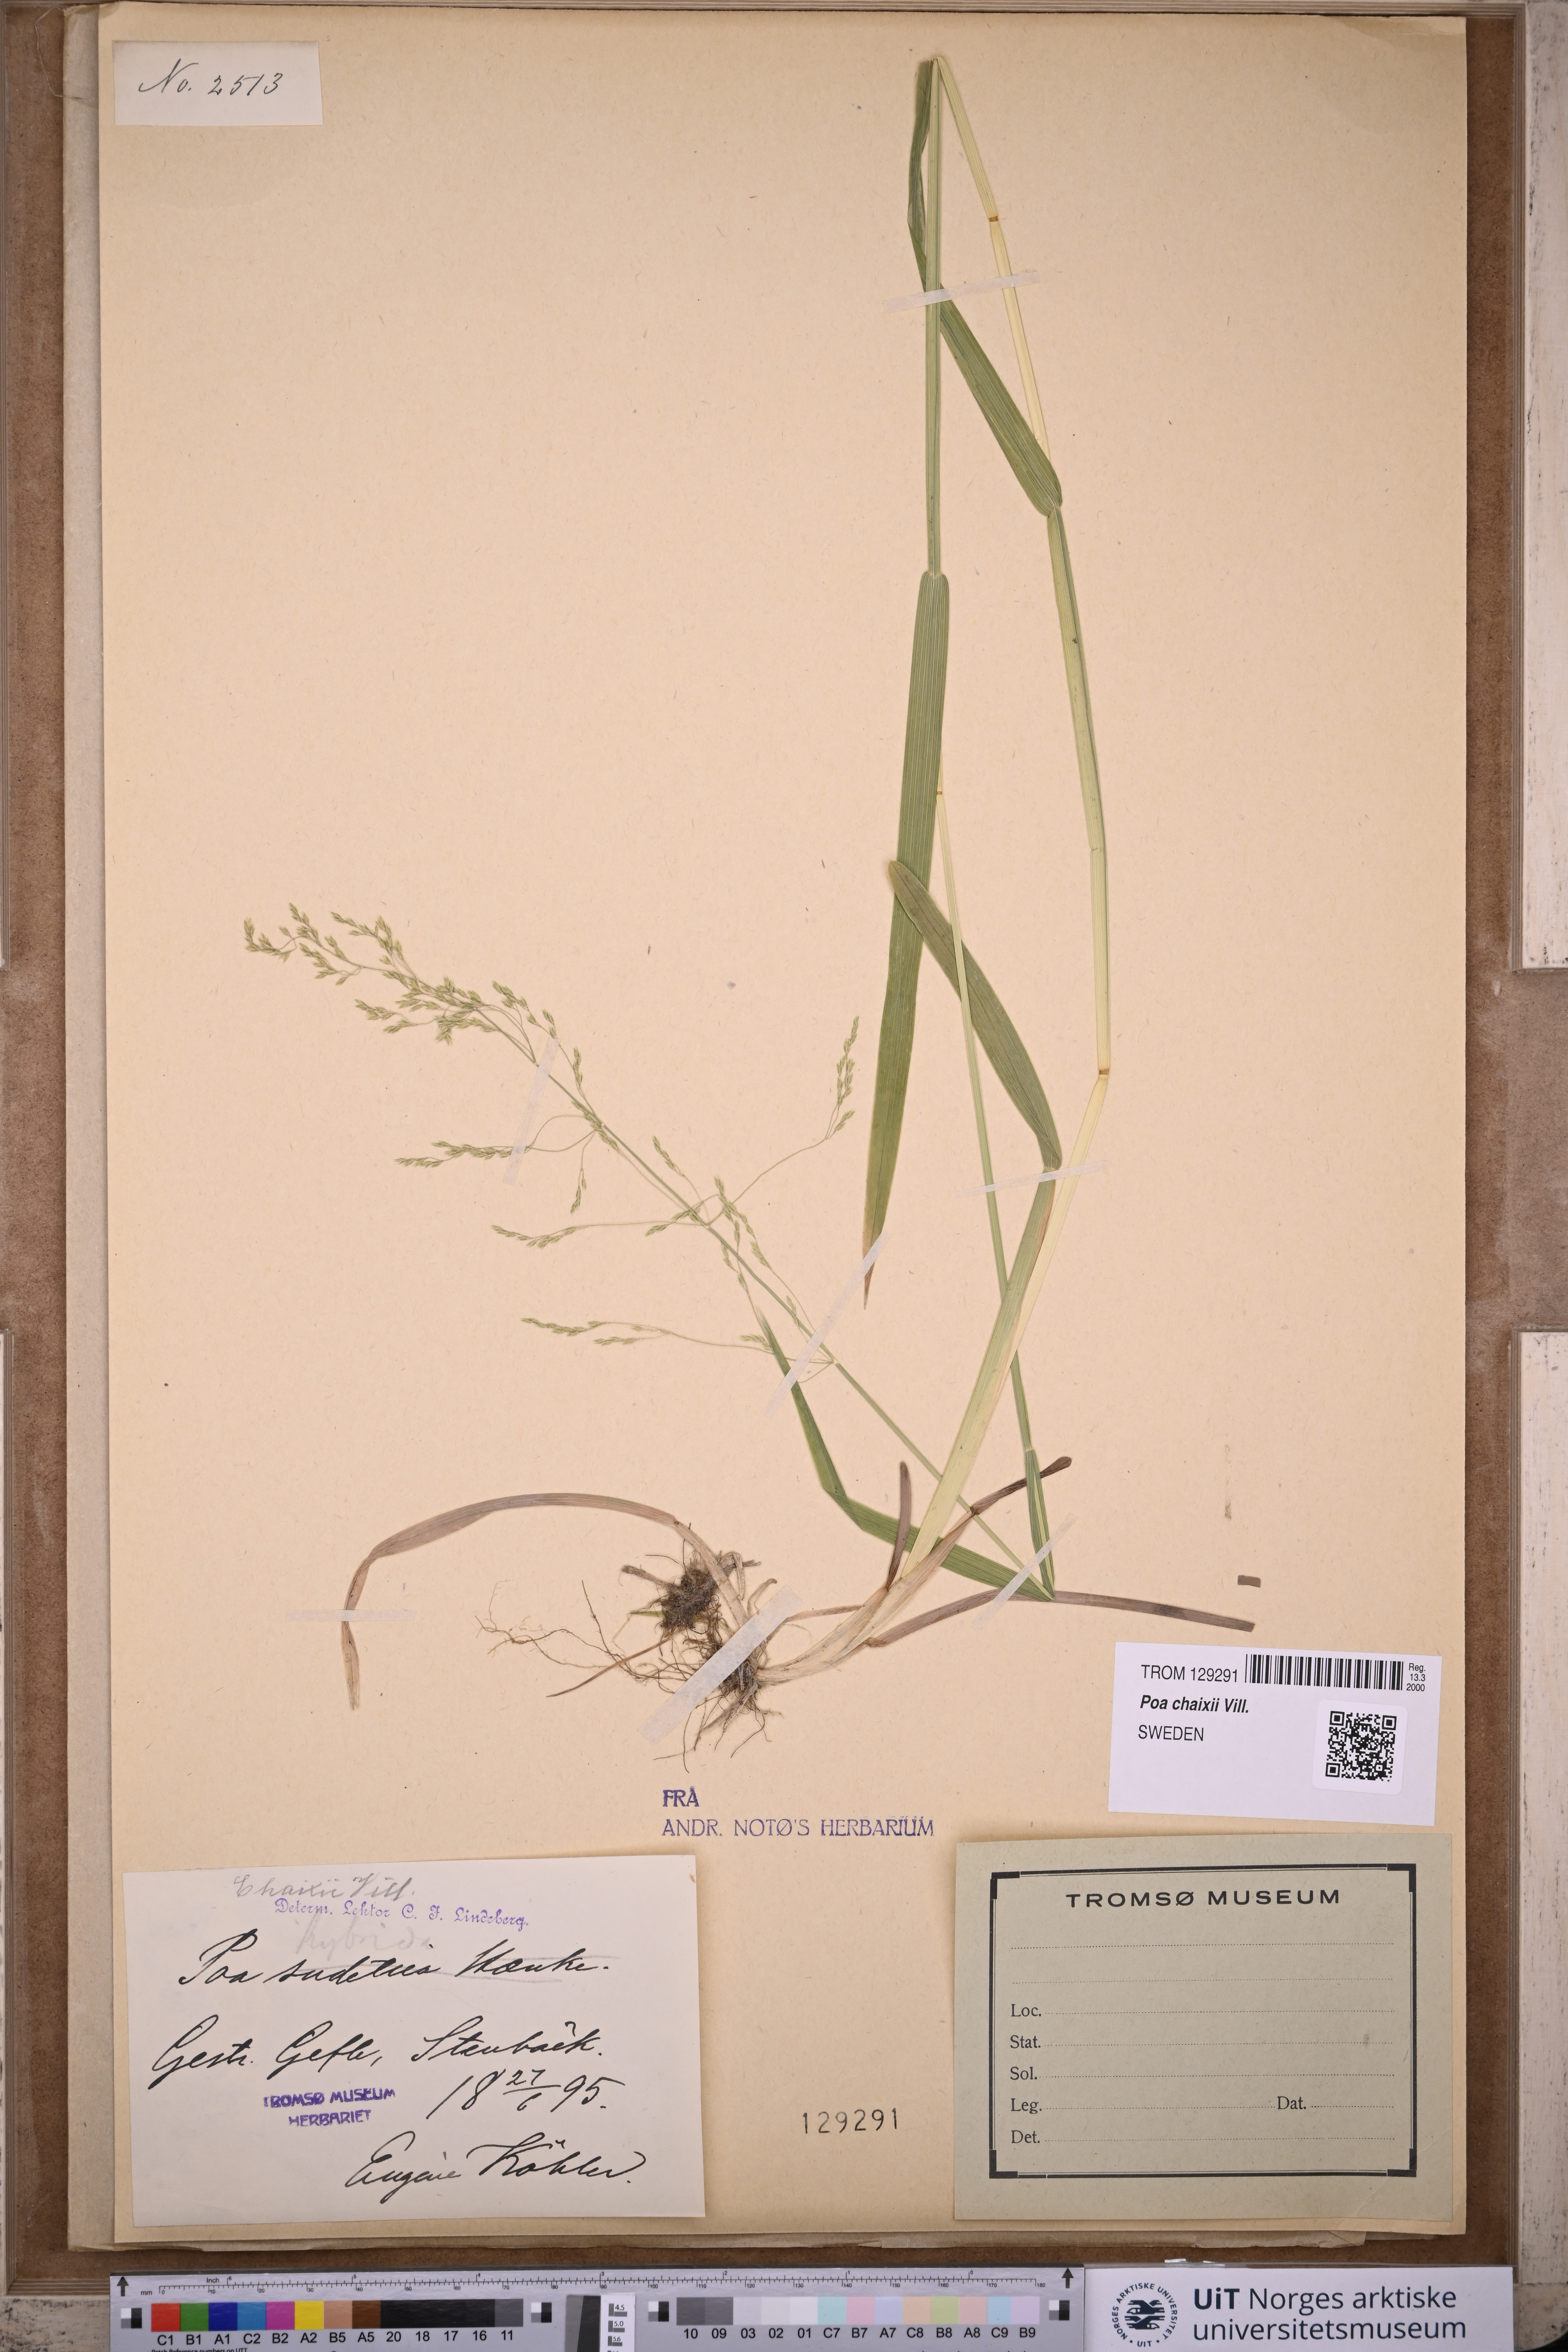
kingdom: Plantae
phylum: Tracheophyta
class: Liliopsida
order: Poales
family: Poaceae
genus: Poa
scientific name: Poa chaixii
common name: Broad-leaved meadow-grass
